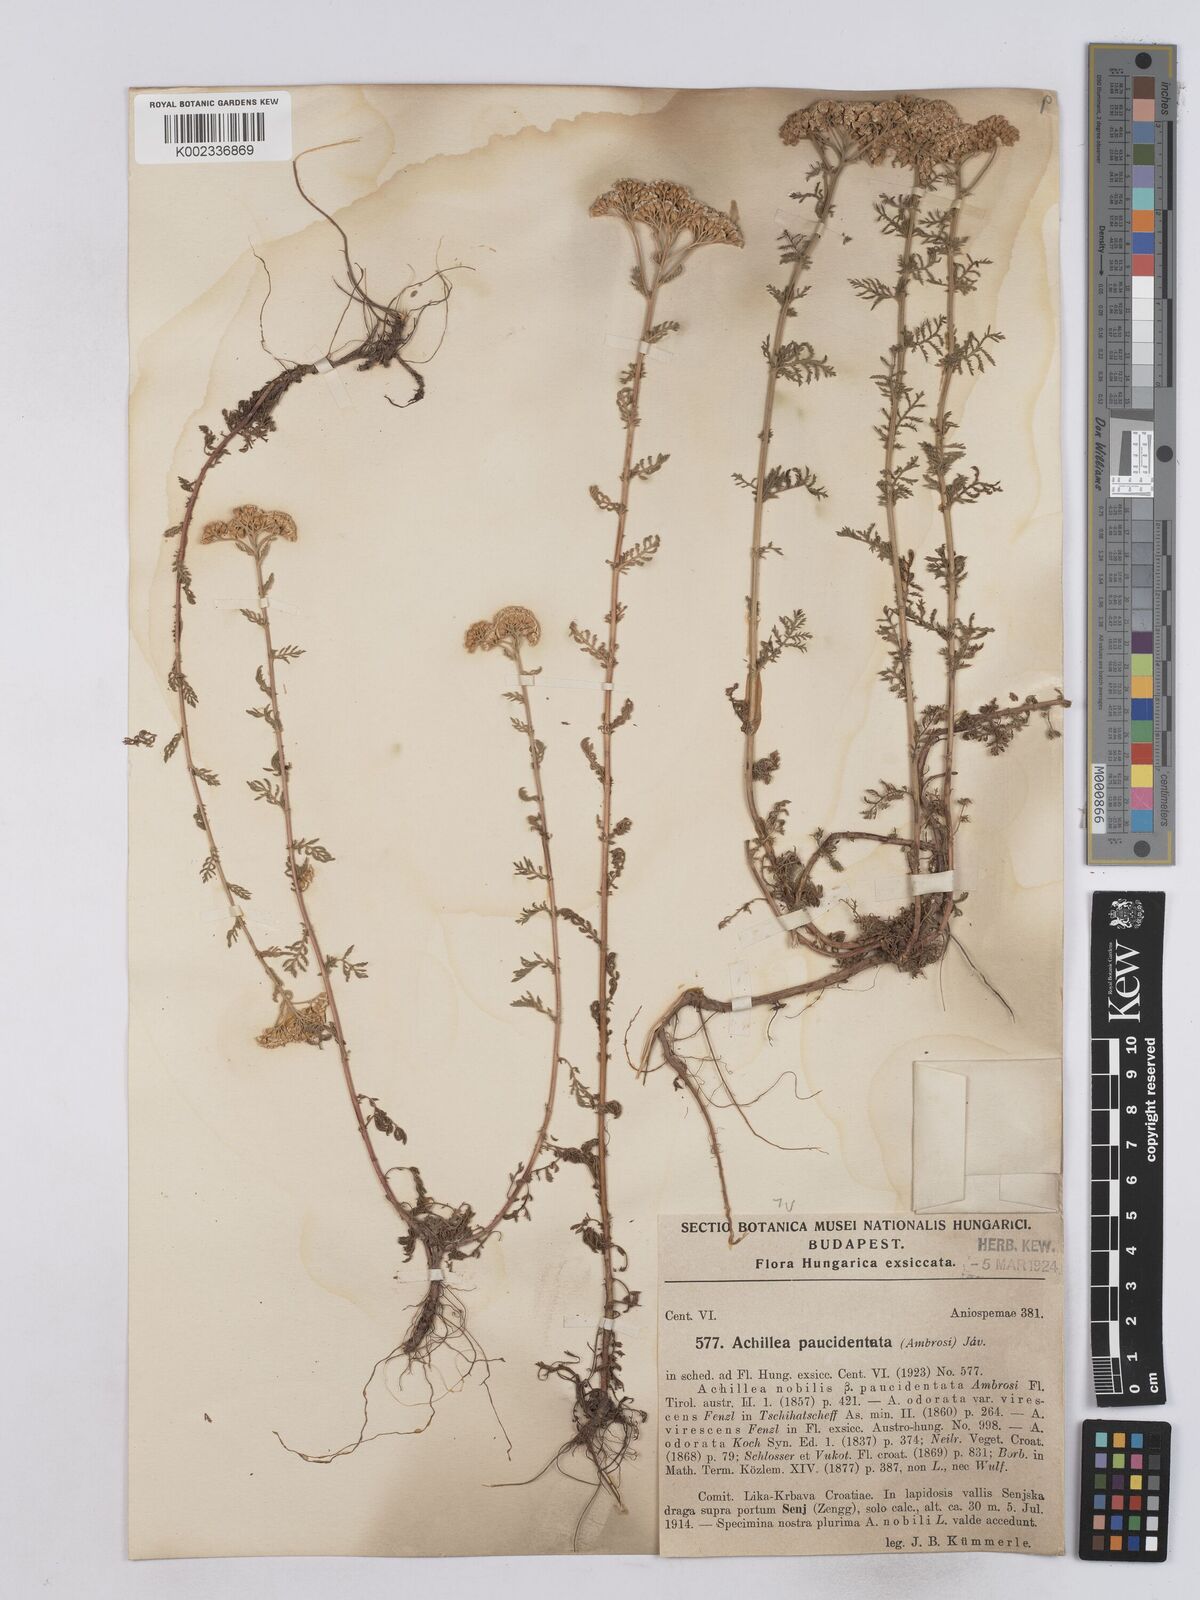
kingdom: Plantae
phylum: Tracheophyta
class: Magnoliopsida
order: Asterales
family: Asteraceae
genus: Achillea
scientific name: Achillea odorata
